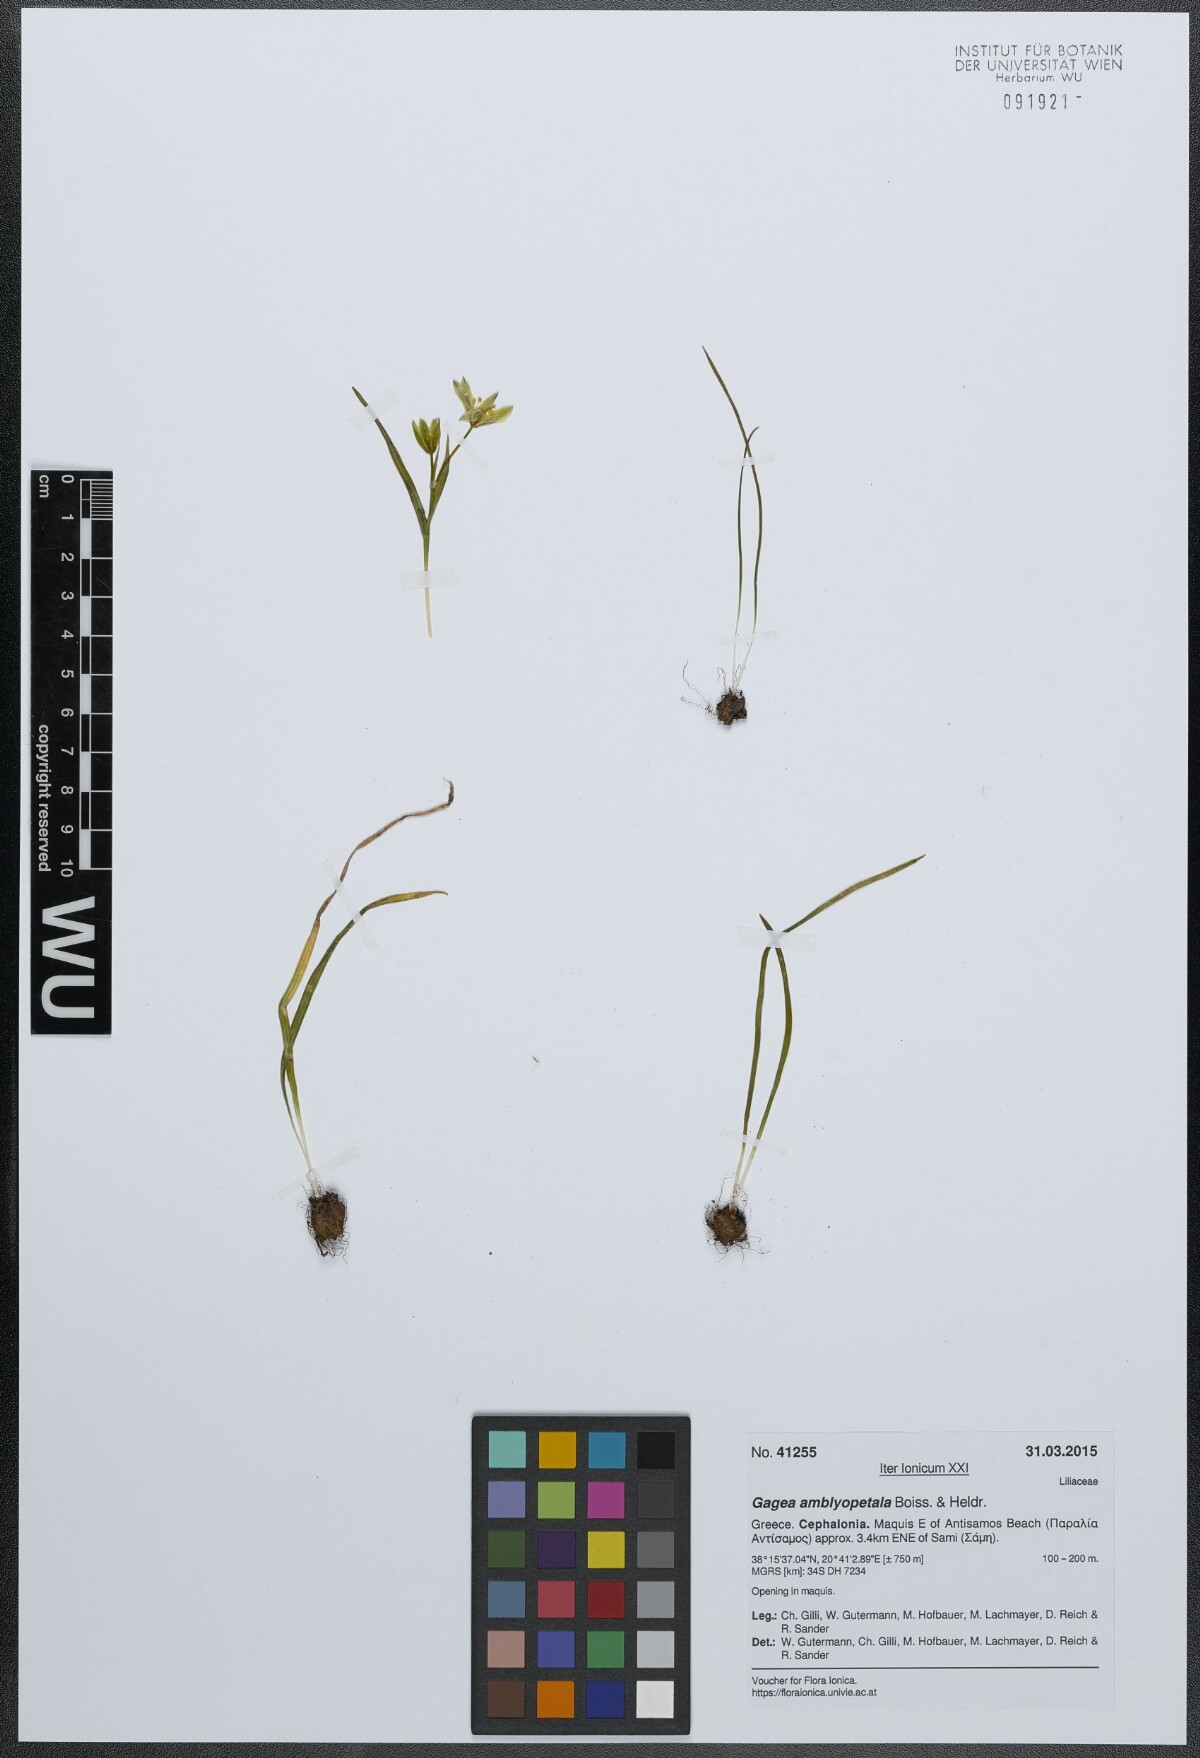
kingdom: Plantae
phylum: Tracheophyta
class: Liliopsida
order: Liliales
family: Liliaceae
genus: Gagea
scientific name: Gagea amblyopetala
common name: Blunt-flowered gagea
